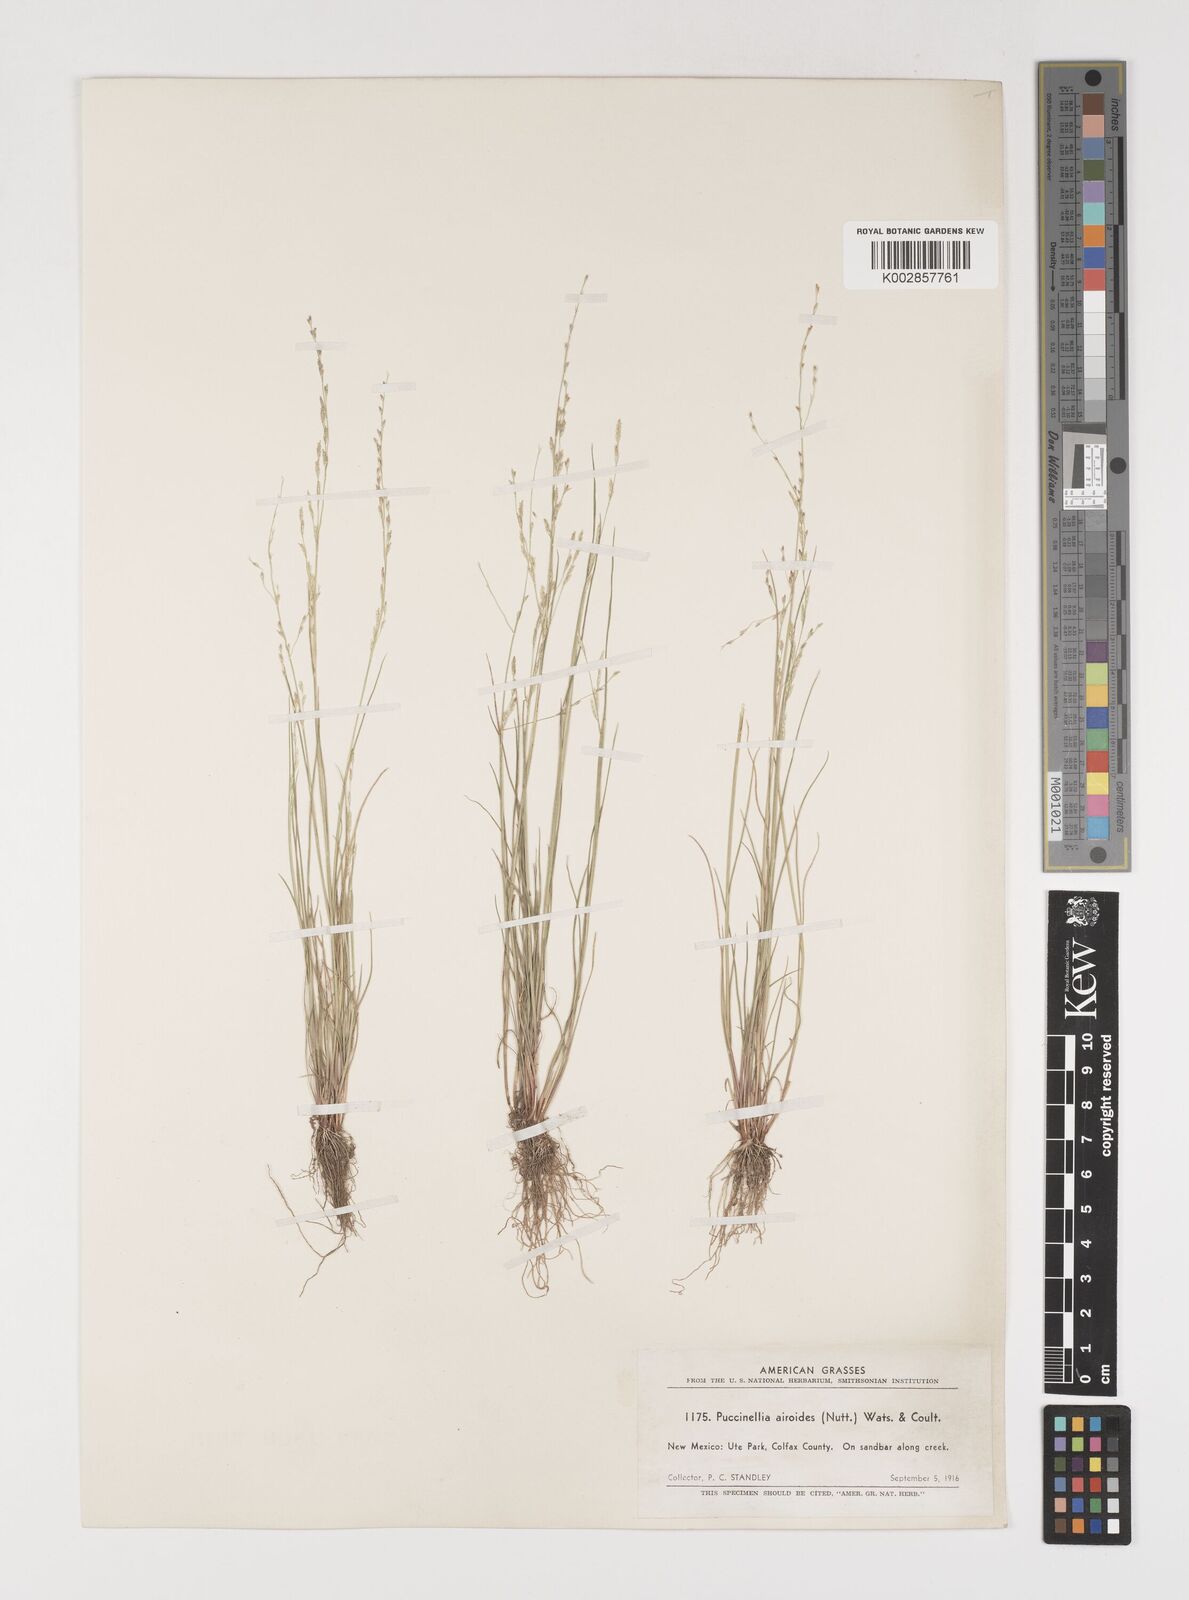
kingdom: Plantae
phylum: Tracheophyta
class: Liliopsida
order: Poales
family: Poaceae
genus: Puccinellia
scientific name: Puccinellia nuttalliana
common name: Nuttall's alkali grass
